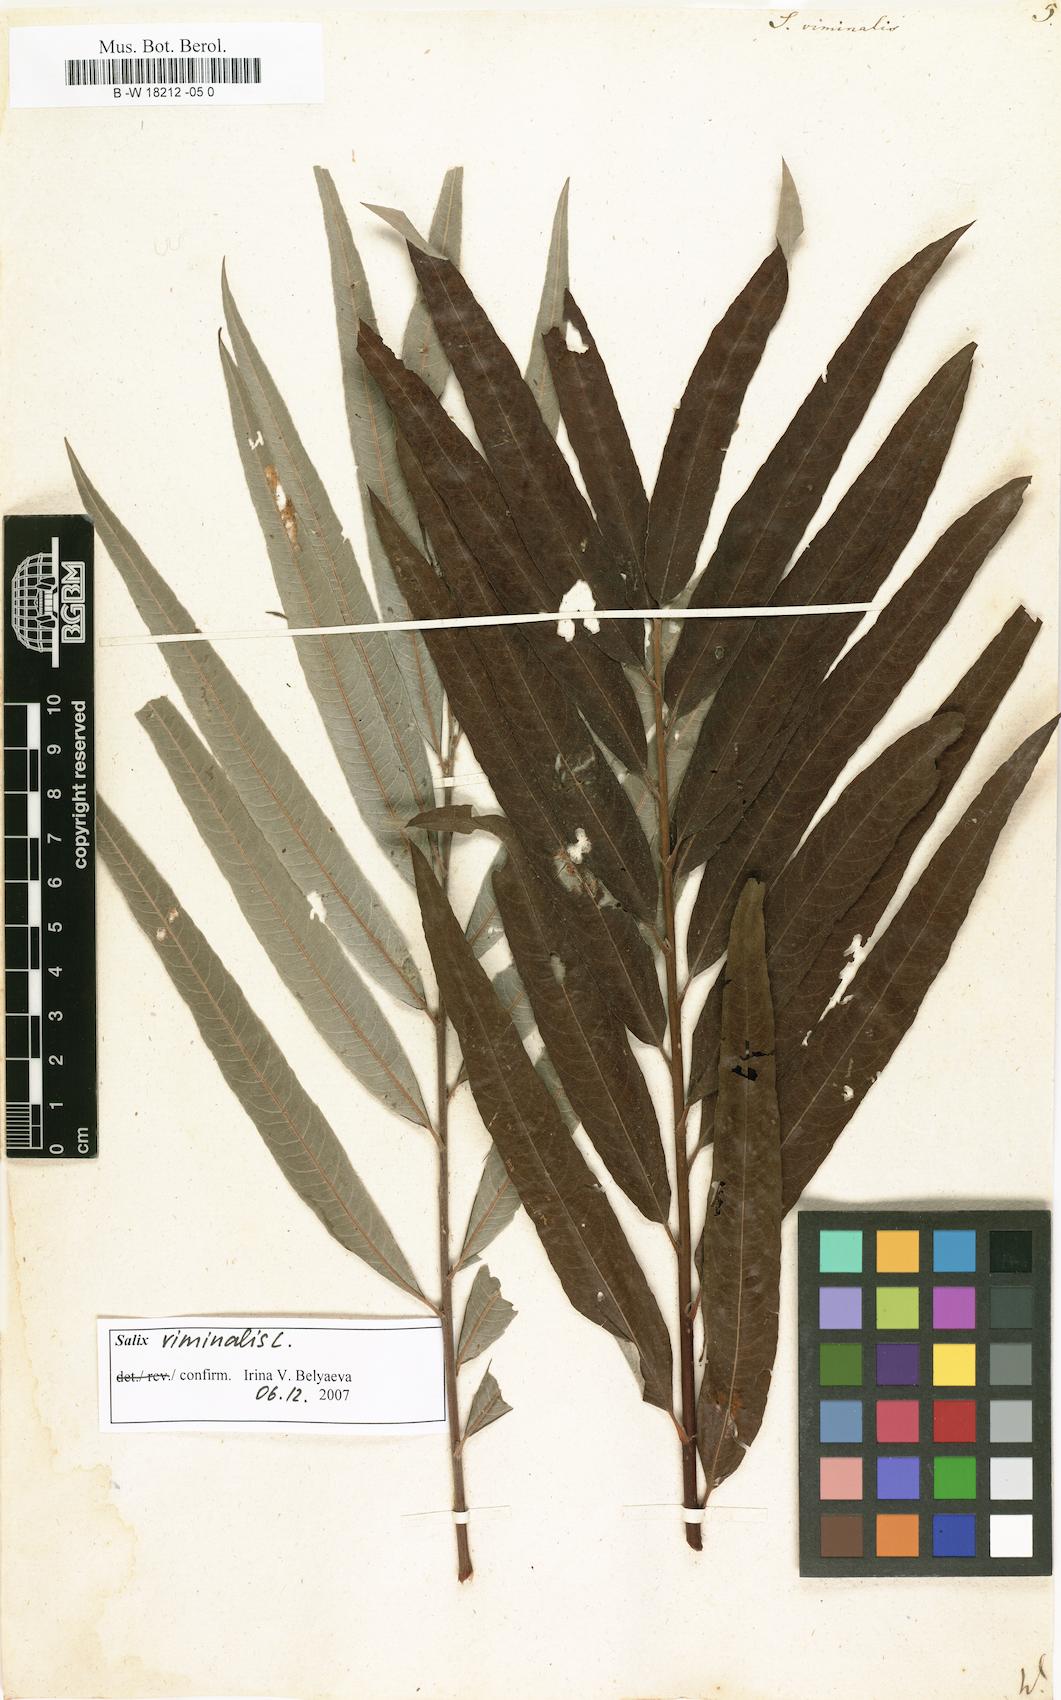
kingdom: Plantae
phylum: Tracheophyta
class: Magnoliopsida
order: Malpighiales
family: Salicaceae
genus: Salix
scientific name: Salix viminalis
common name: Osier
